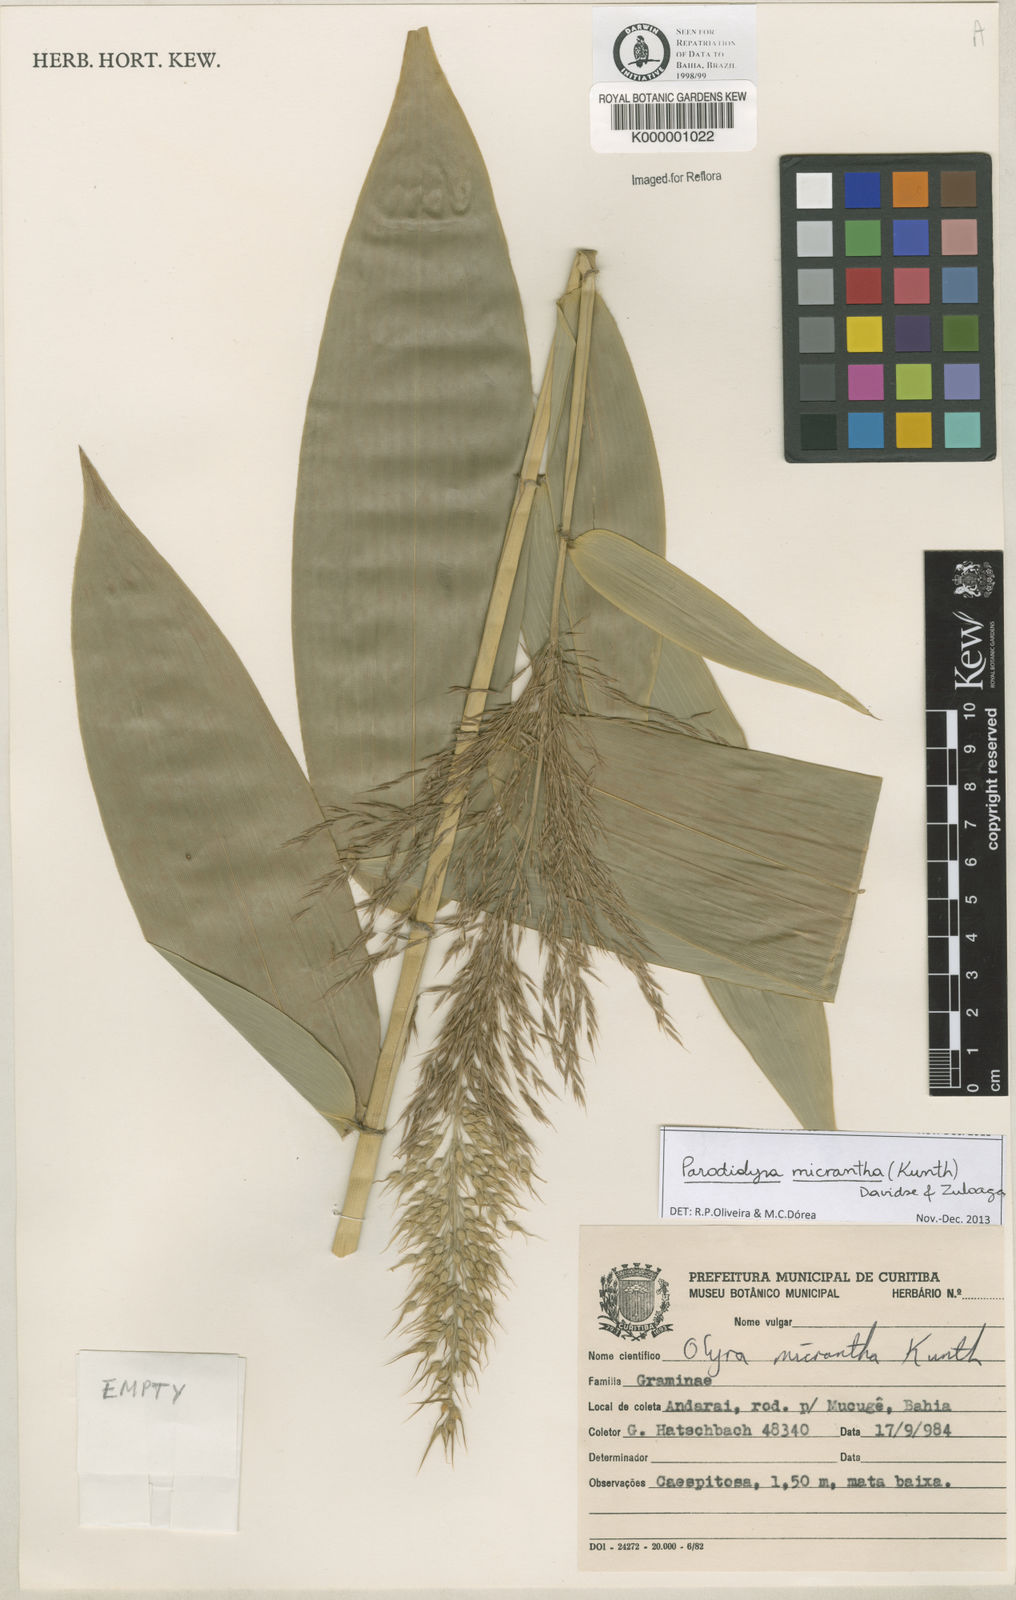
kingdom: Plantae
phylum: Tracheophyta
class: Liliopsida
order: Poales
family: Poaceae
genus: Taquara
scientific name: Taquara micrantha
